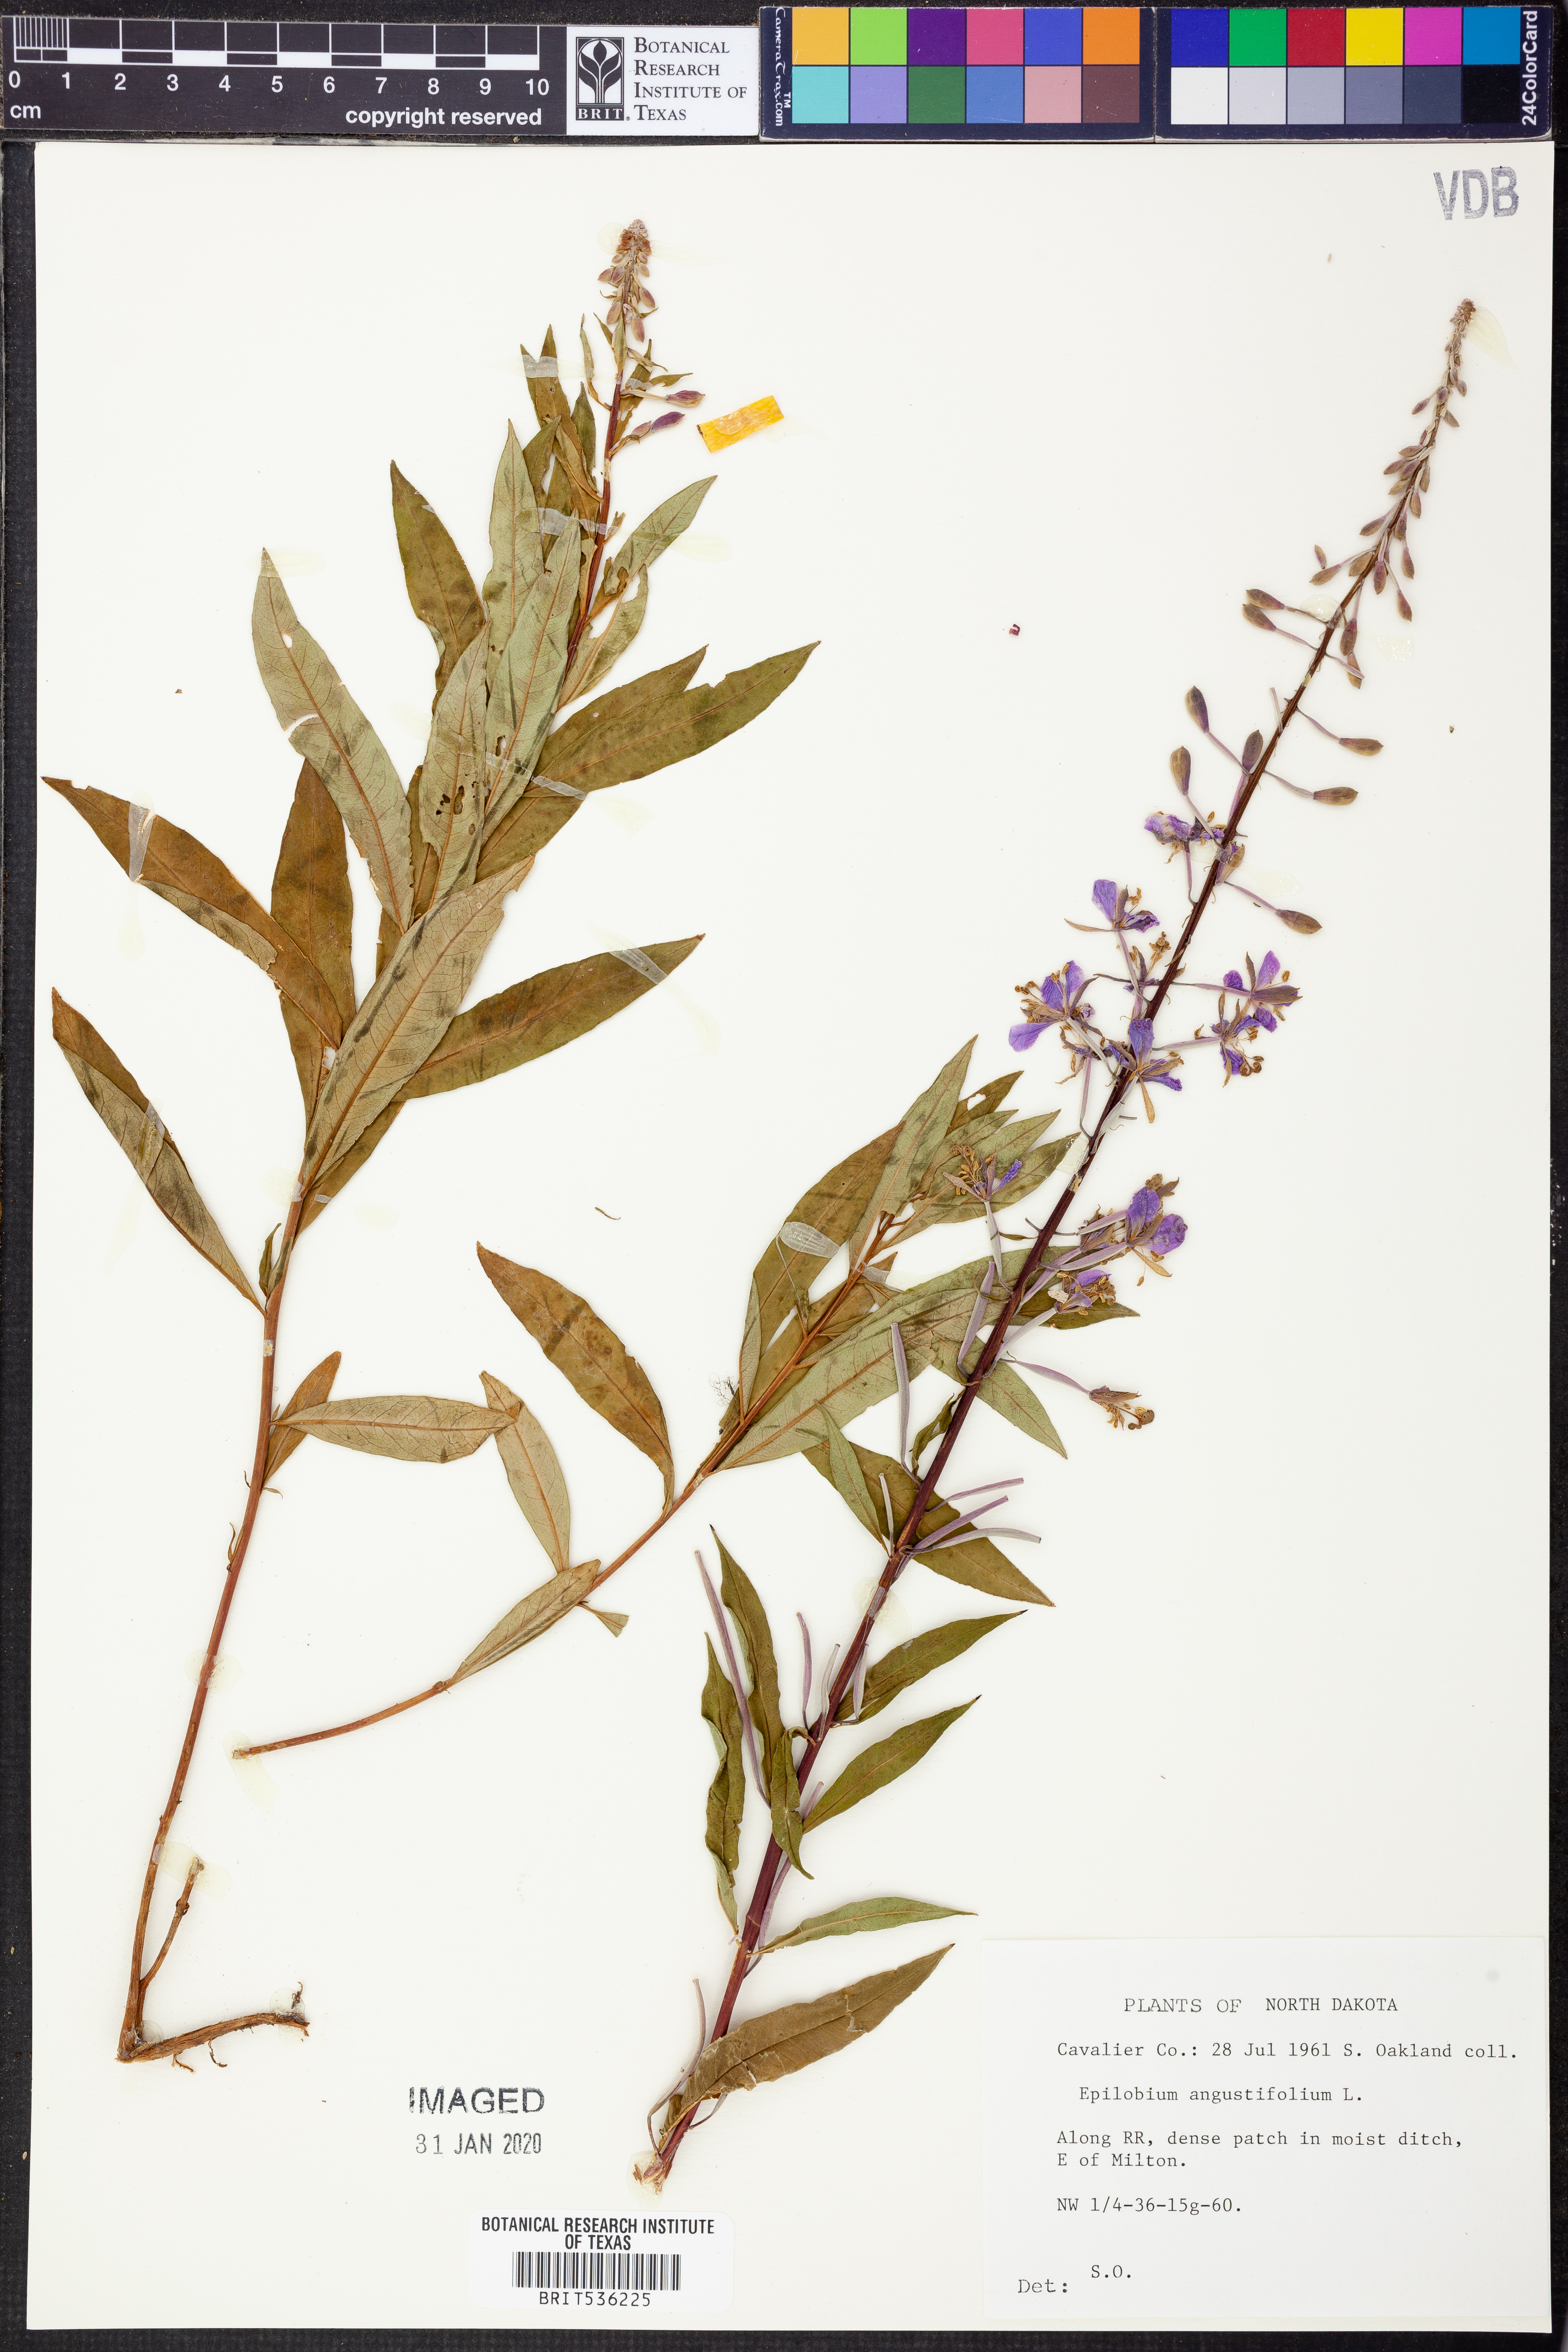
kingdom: Plantae
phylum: Tracheophyta
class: Magnoliopsida
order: Myrtales
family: Onagraceae
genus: Chamaenerion
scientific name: Chamaenerion dodonaei
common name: Rosemary-leaved willowherb
